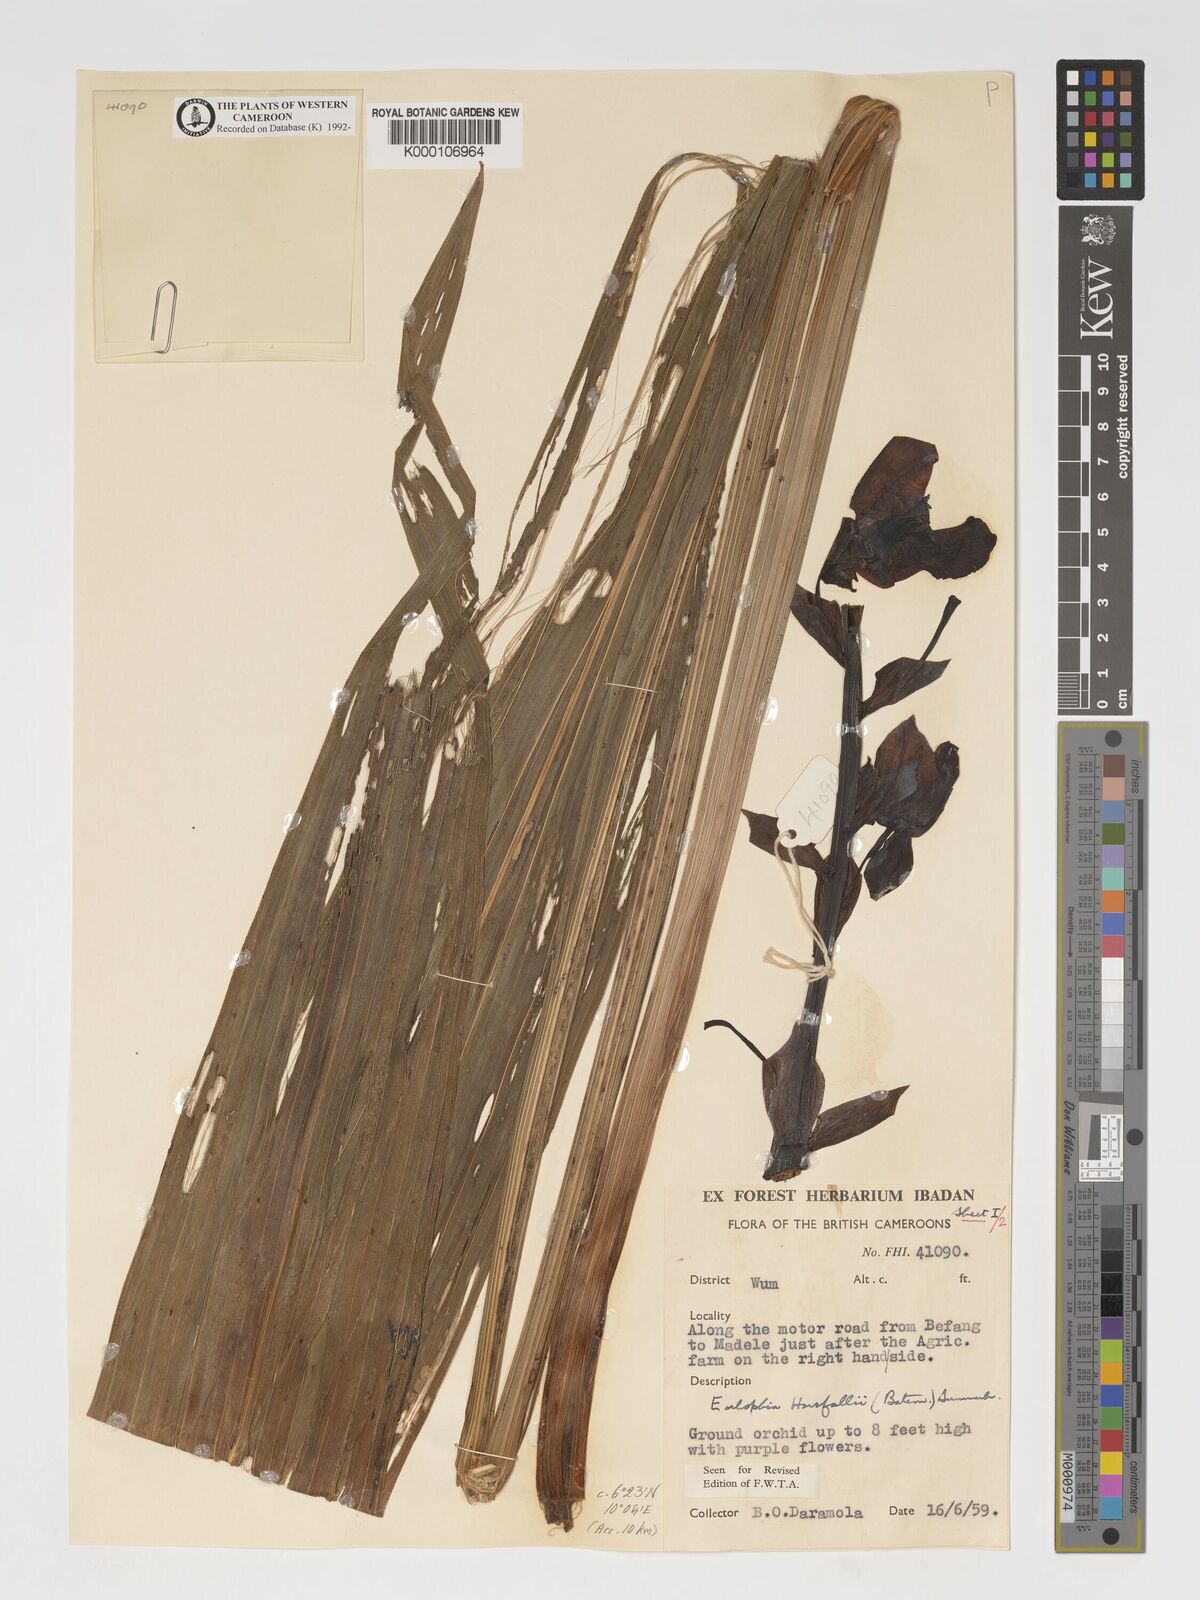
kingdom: Plantae
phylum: Tracheophyta
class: Liliopsida
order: Asparagales
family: Orchidaceae
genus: Eulophia
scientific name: Eulophia horsfallii
